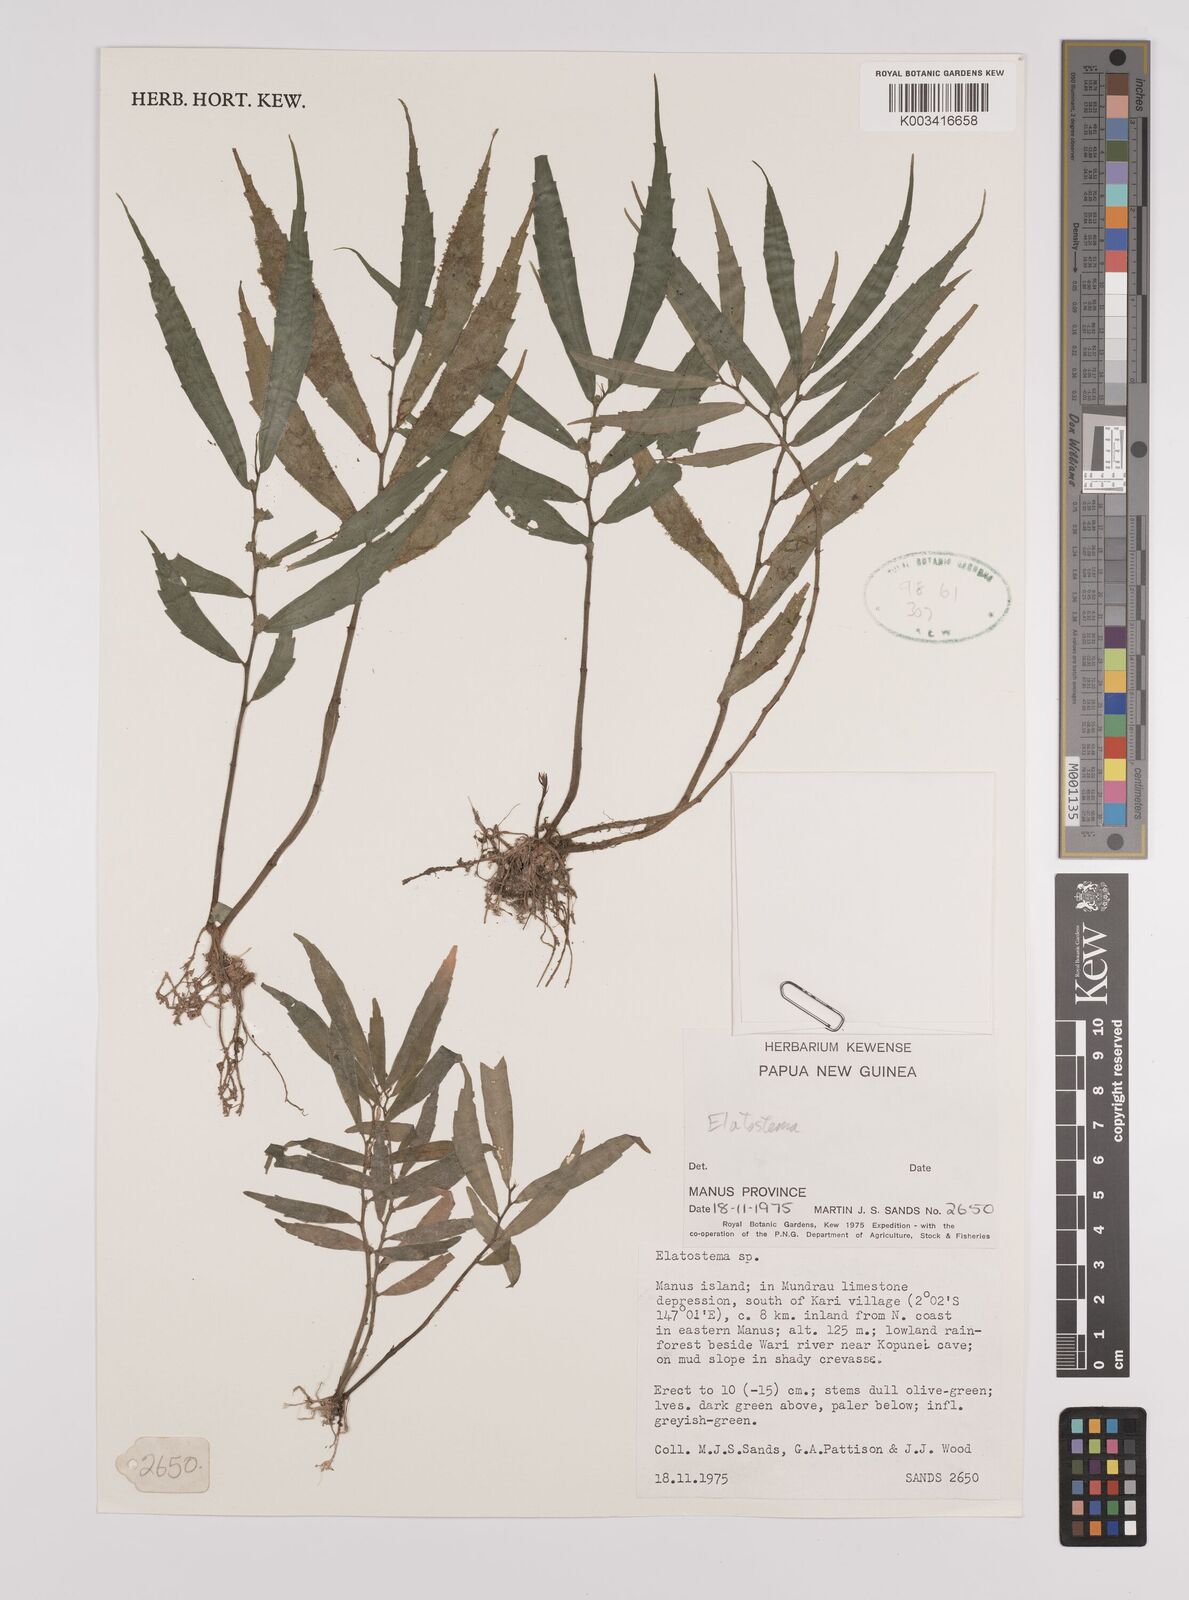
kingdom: Plantae
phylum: Tracheophyta
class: Magnoliopsida
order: Rosales
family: Urticaceae
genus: Elatostema
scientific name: Elatostema
